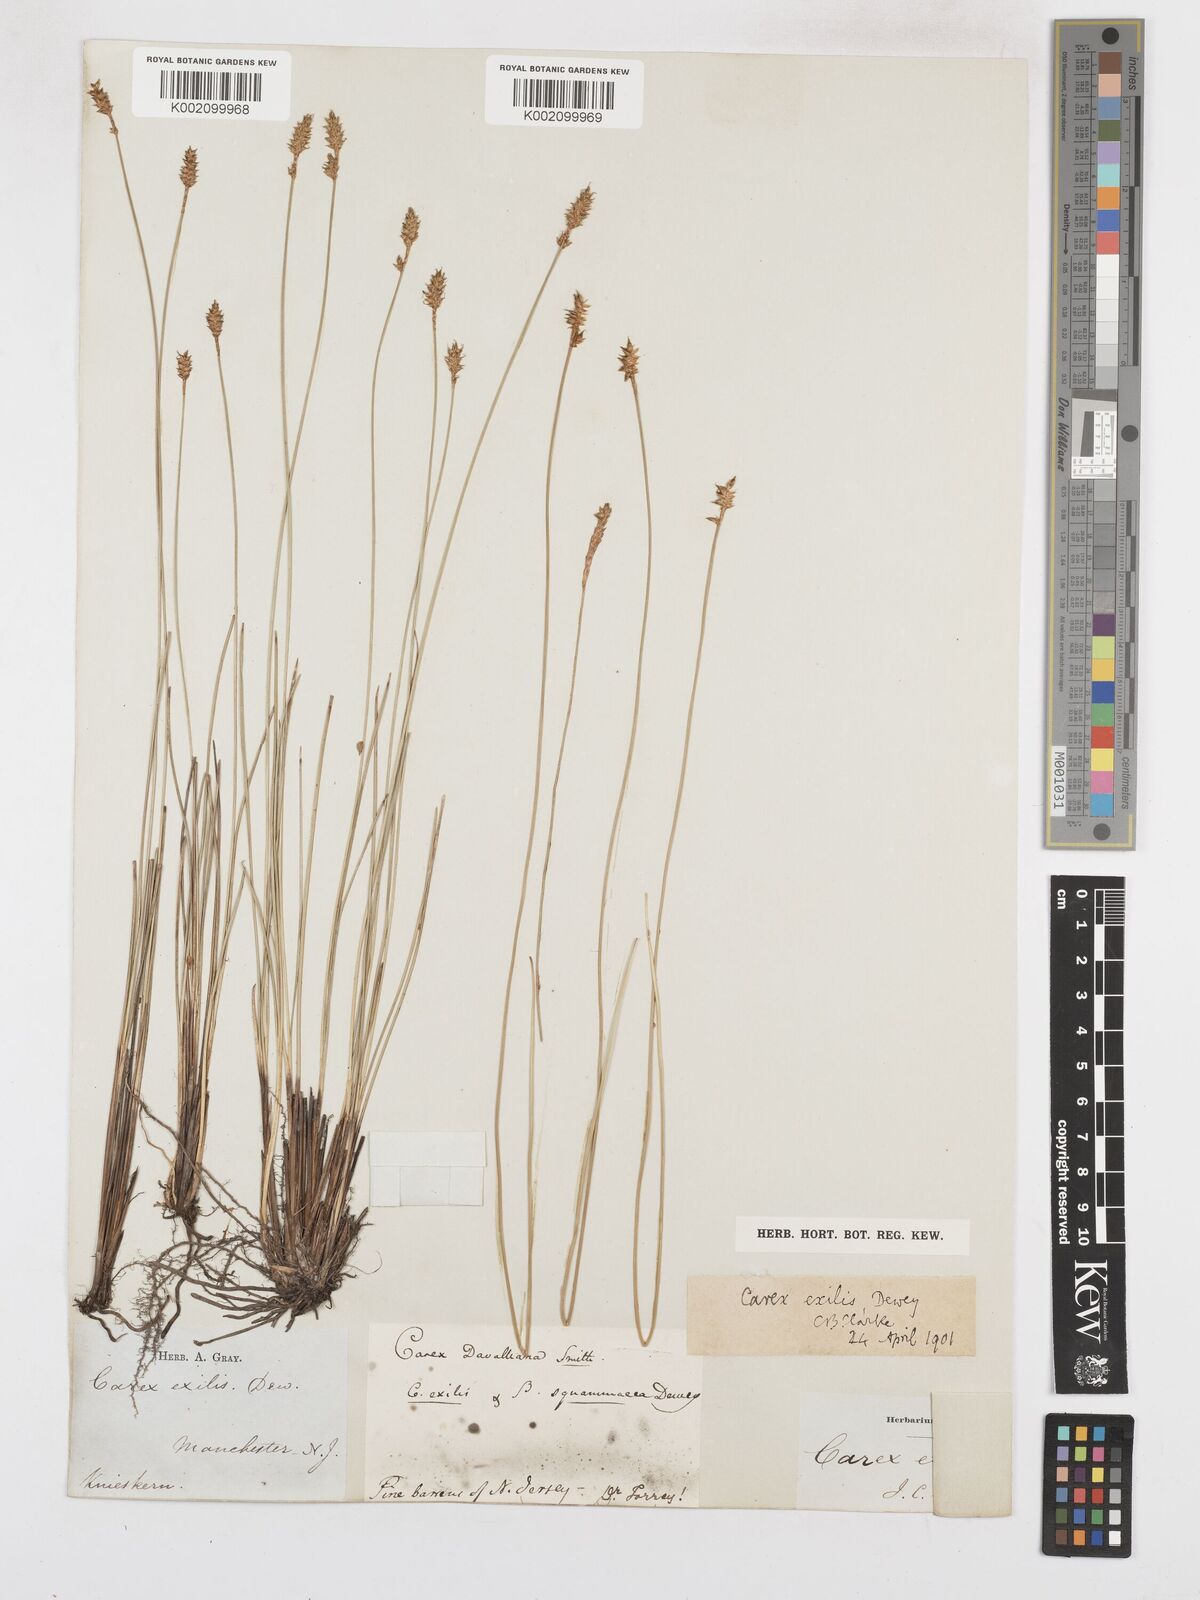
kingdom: Plantae
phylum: Tracheophyta
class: Liliopsida
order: Poales
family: Cyperaceae
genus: Carex
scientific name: Carex exilis
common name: Coastal sedge
